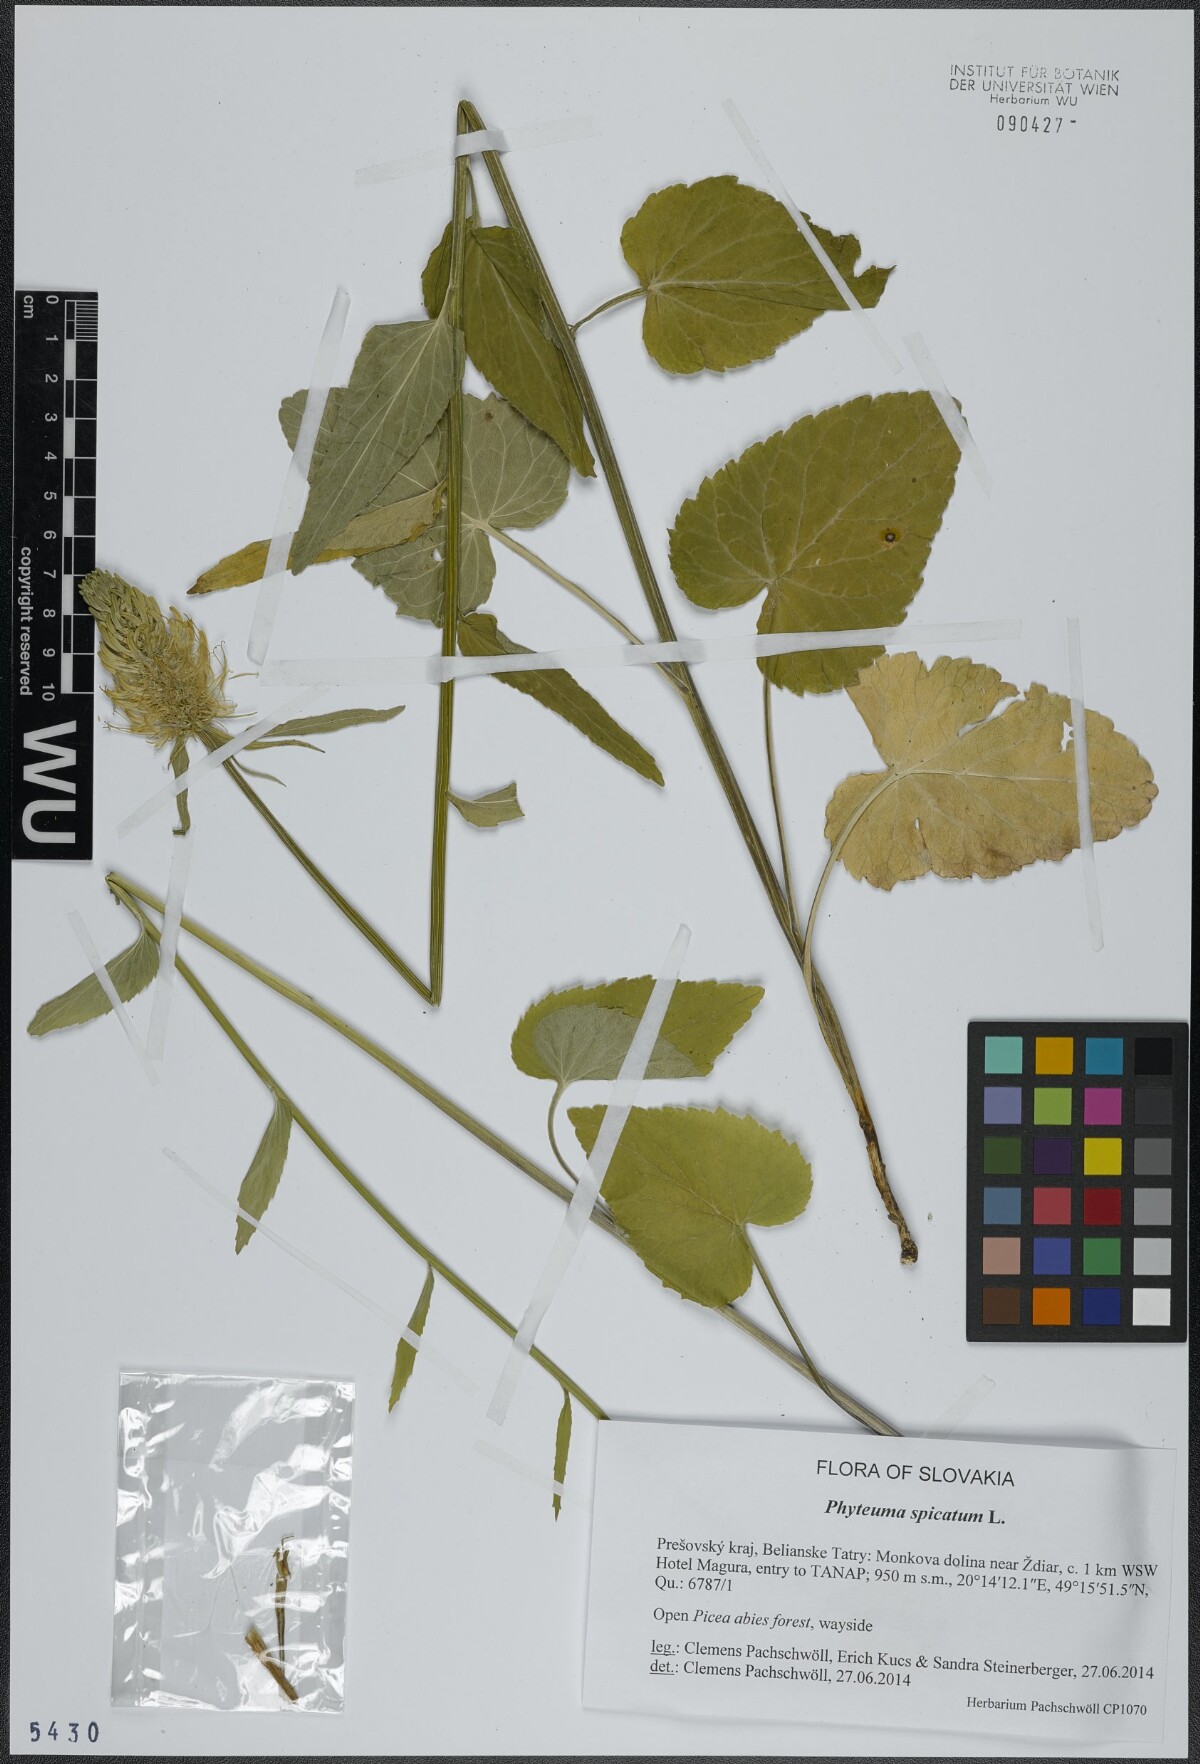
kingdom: Plantae
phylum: Tracheophyta
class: Magnoliopsida
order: Asterales
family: Campanulaceae
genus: Phyteuma
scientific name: Phyteuma spicatum
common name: Spiked rampion
